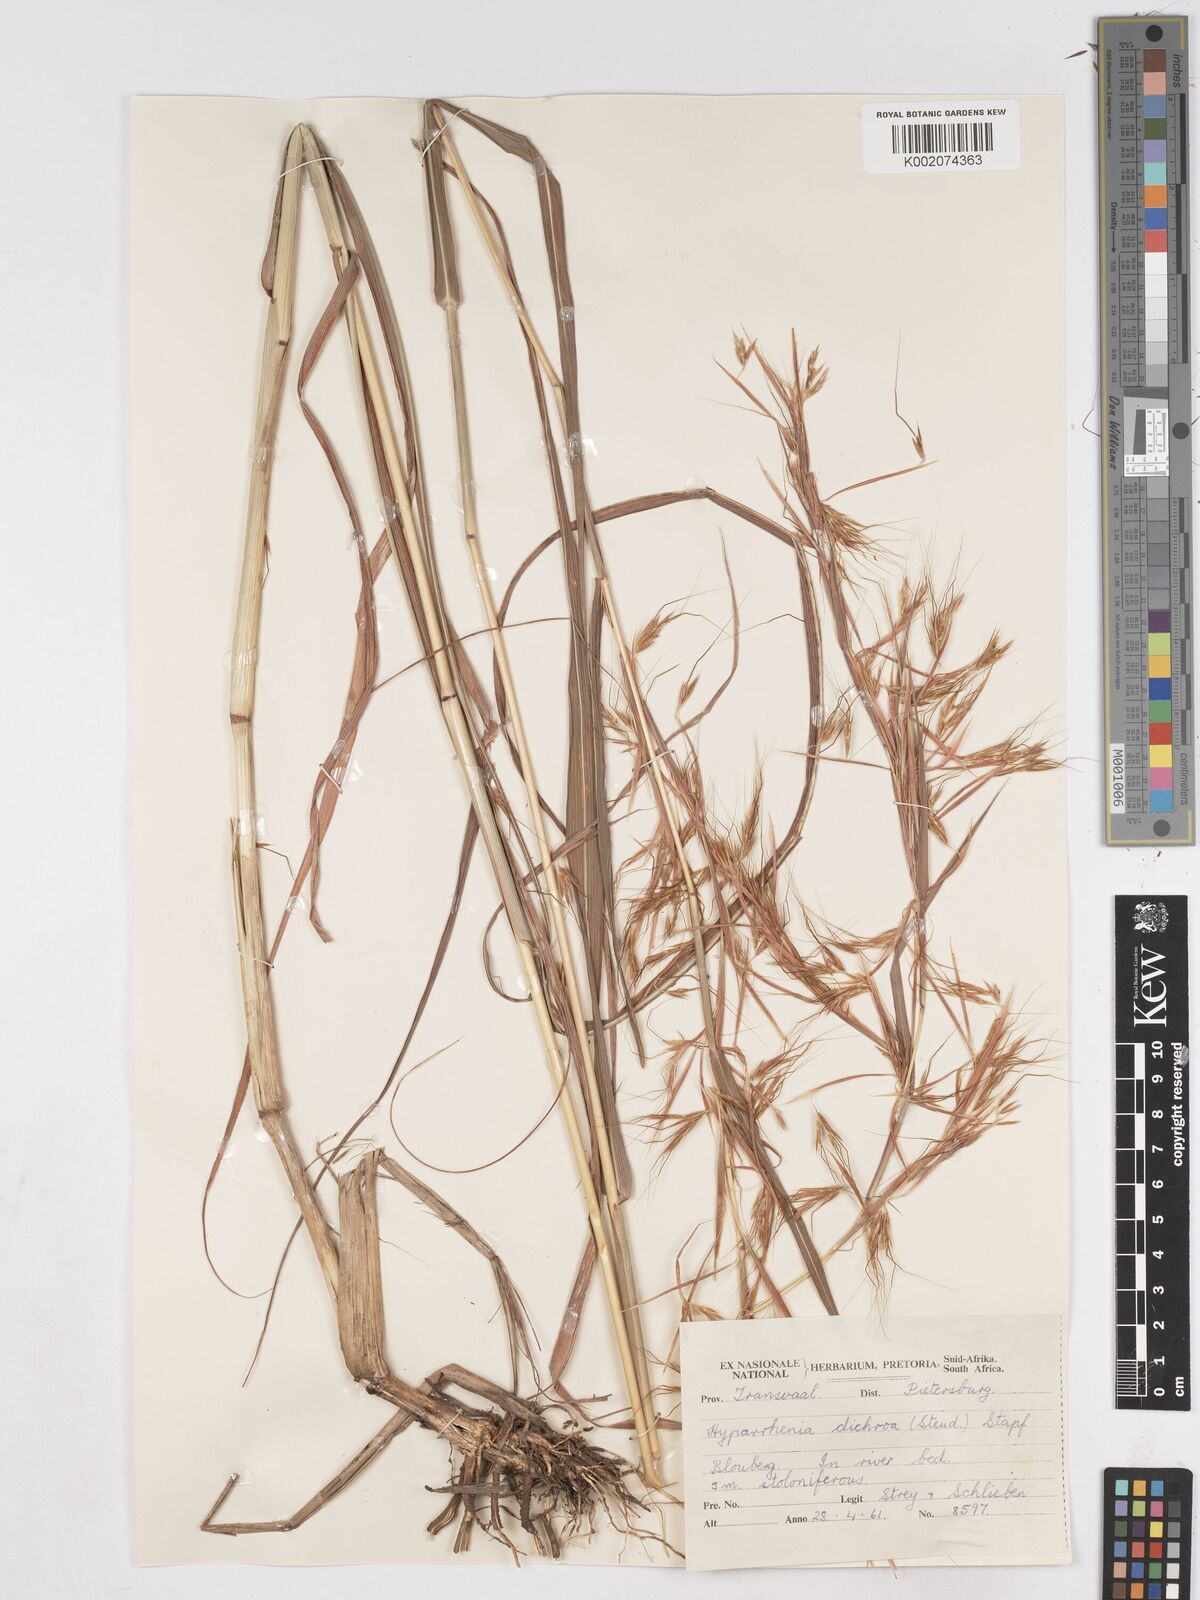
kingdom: Plantae
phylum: Tracheophyta
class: Liliopsida
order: Poales
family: Poaceae
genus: Hyparrhenia
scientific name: Hyparrhenia dichroa
